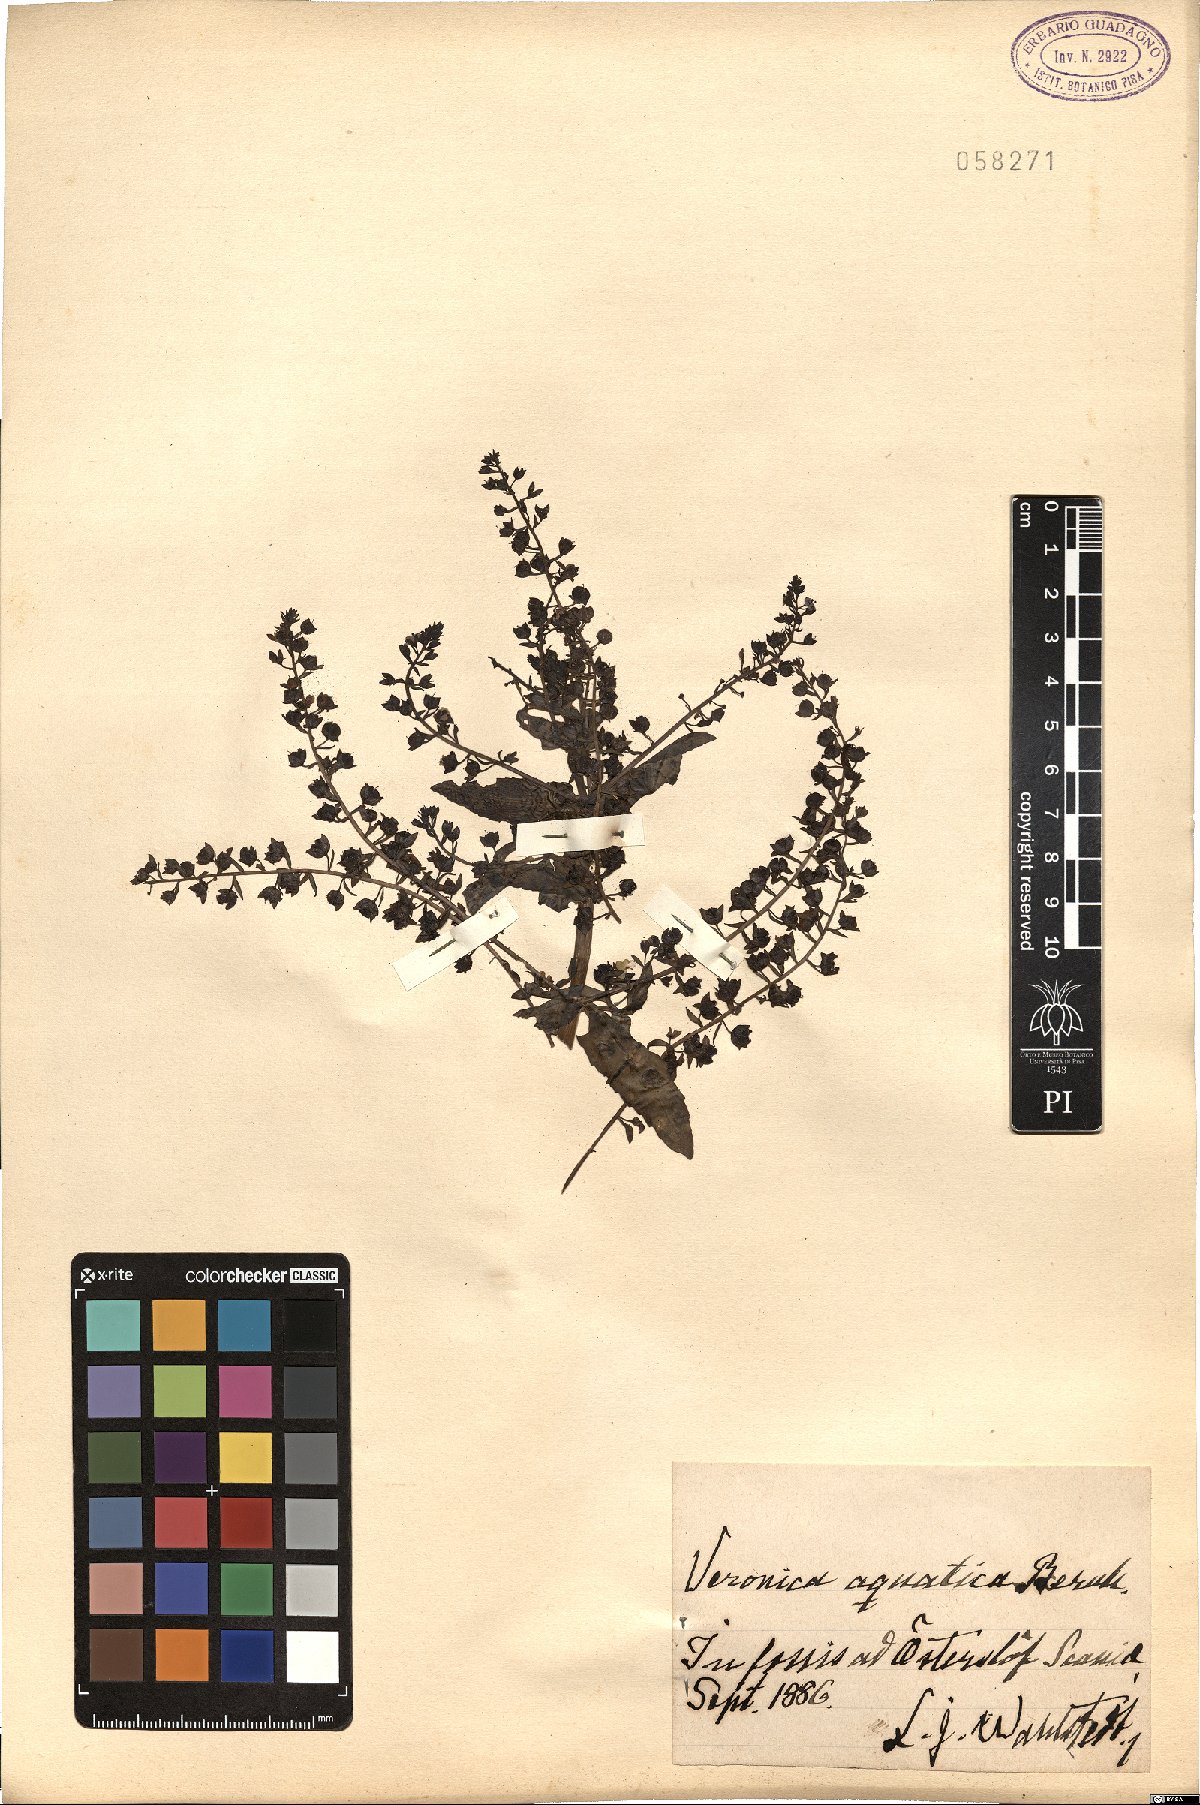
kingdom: Plantae
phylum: Tracheophyta
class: Magnoliopsida
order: Lamiales
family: Plantaginaceae
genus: Veronica
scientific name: Veronica catenata
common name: Pink water-speedwell
